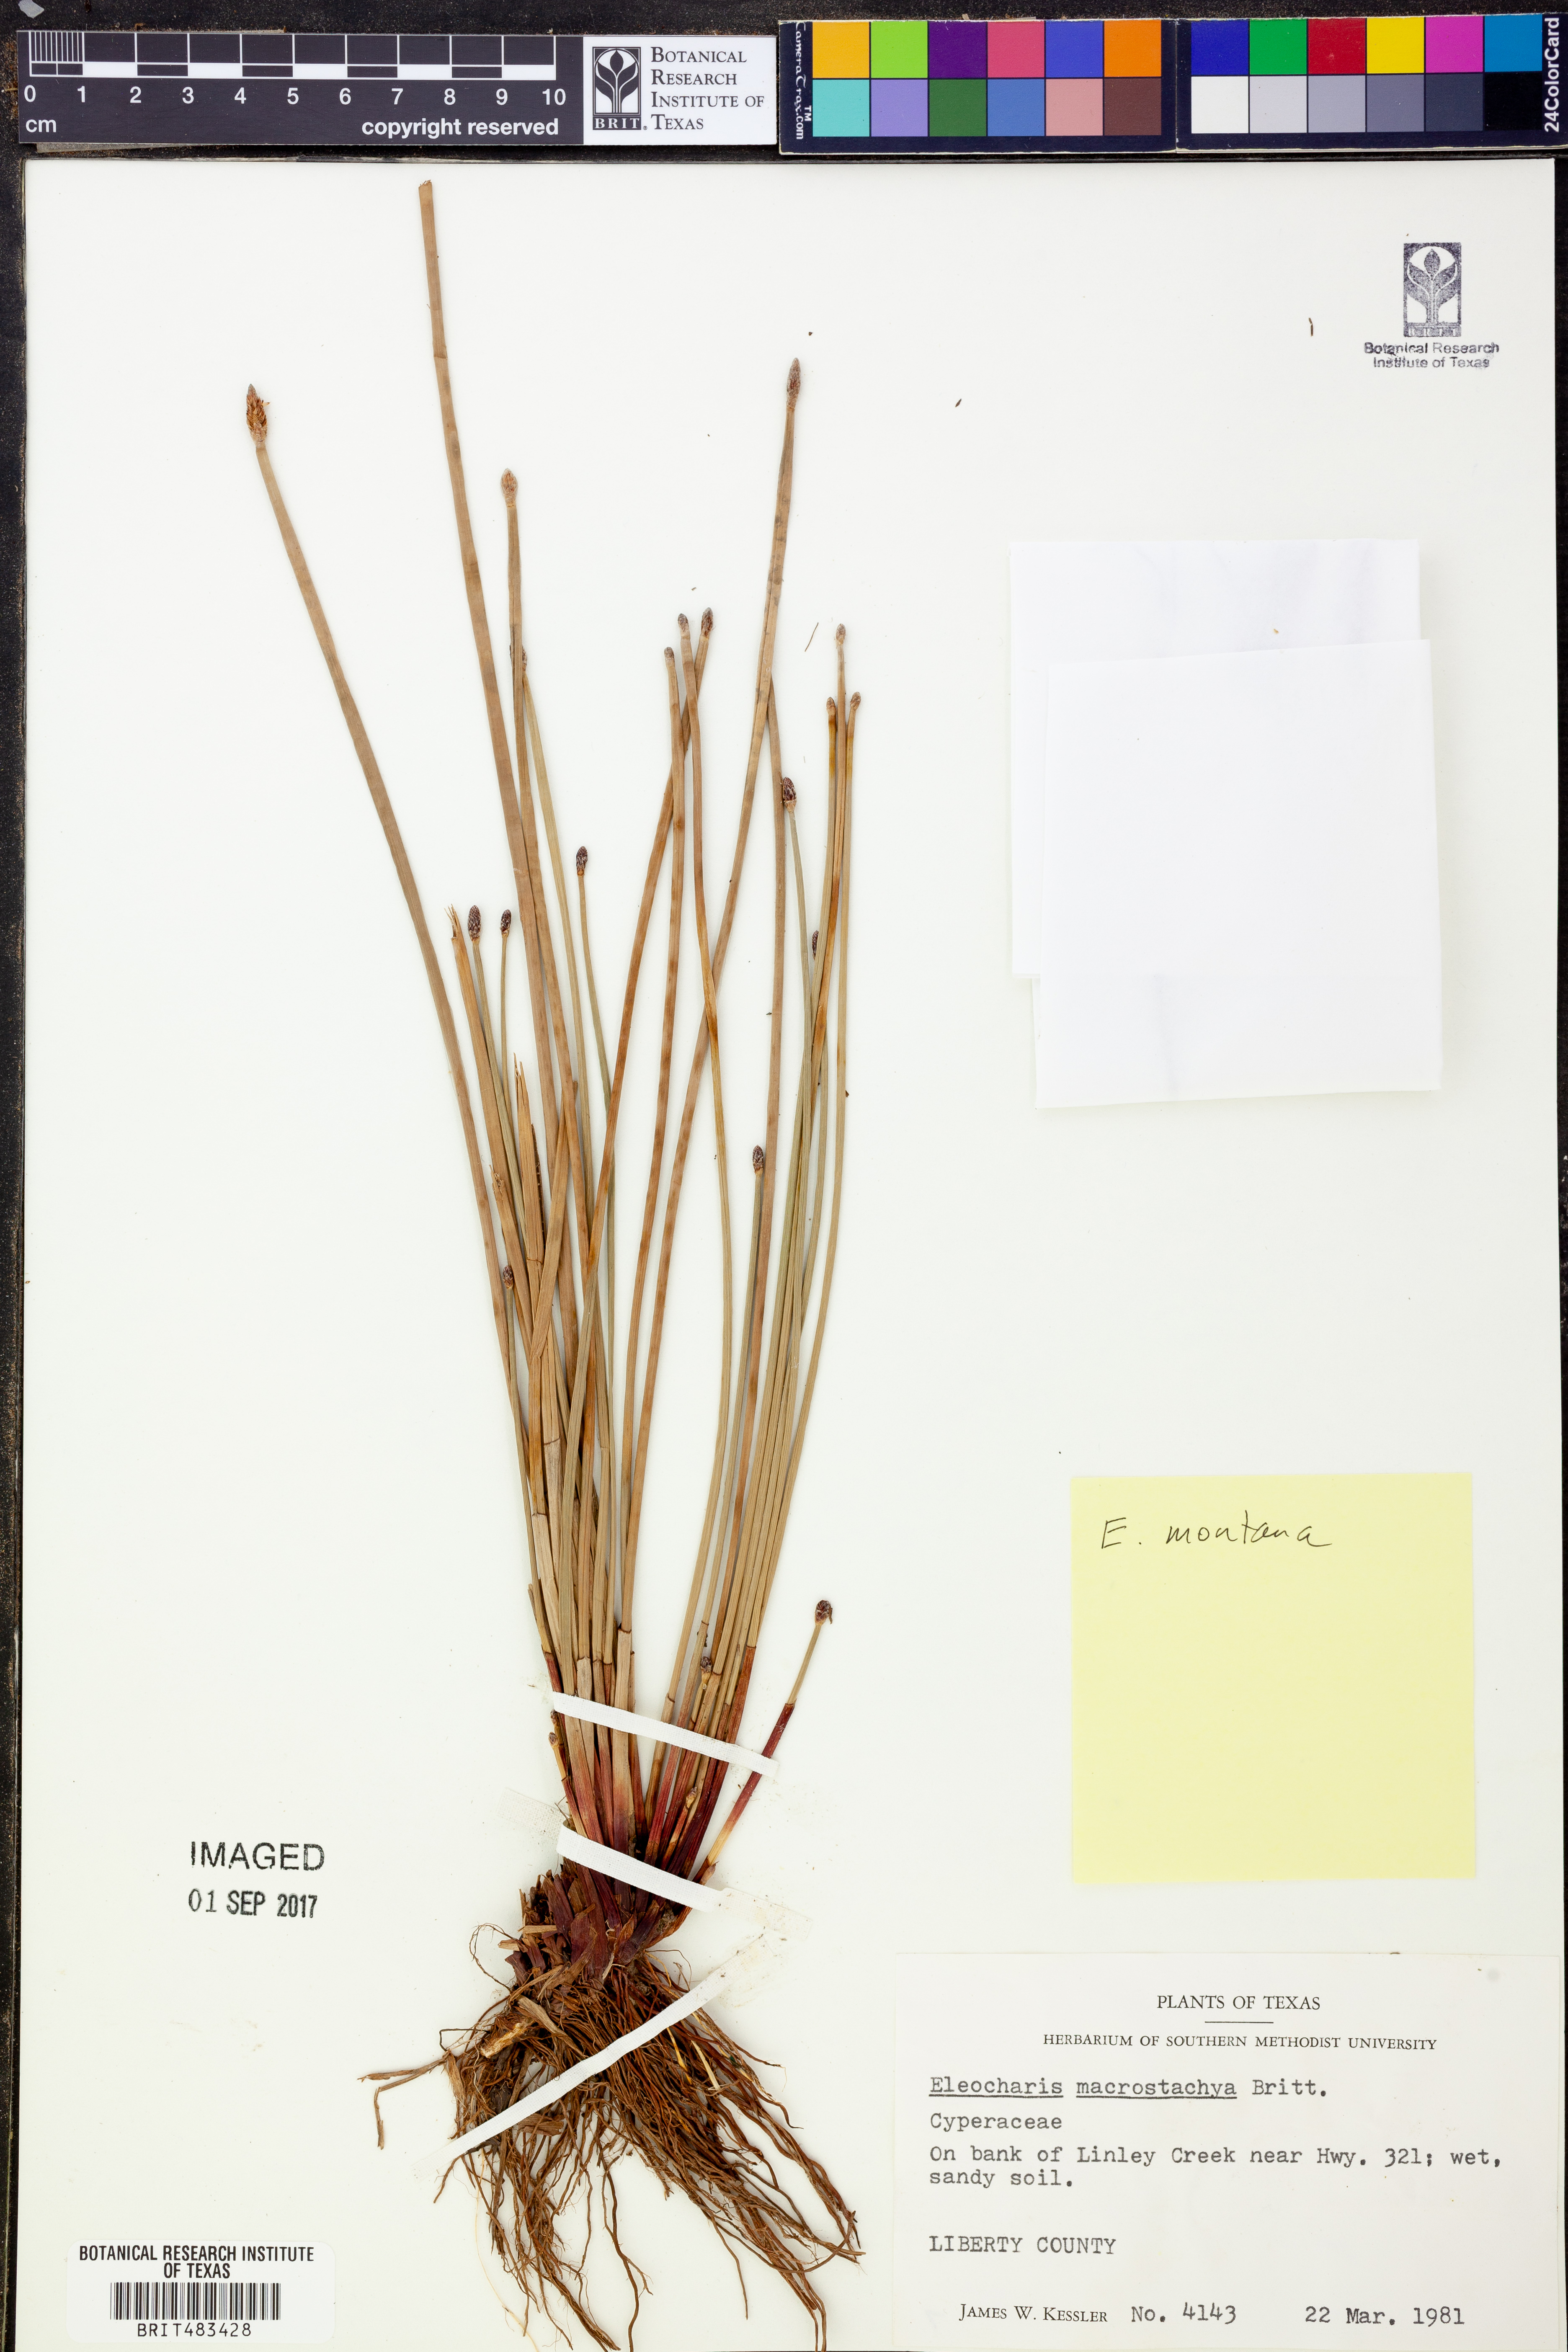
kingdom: Plantae
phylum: Tracheophyta
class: Liliopsida
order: Poales
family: Cyperaceae
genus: Eleocharis
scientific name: Eleocharis macrostachya
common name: Pale spikerush
